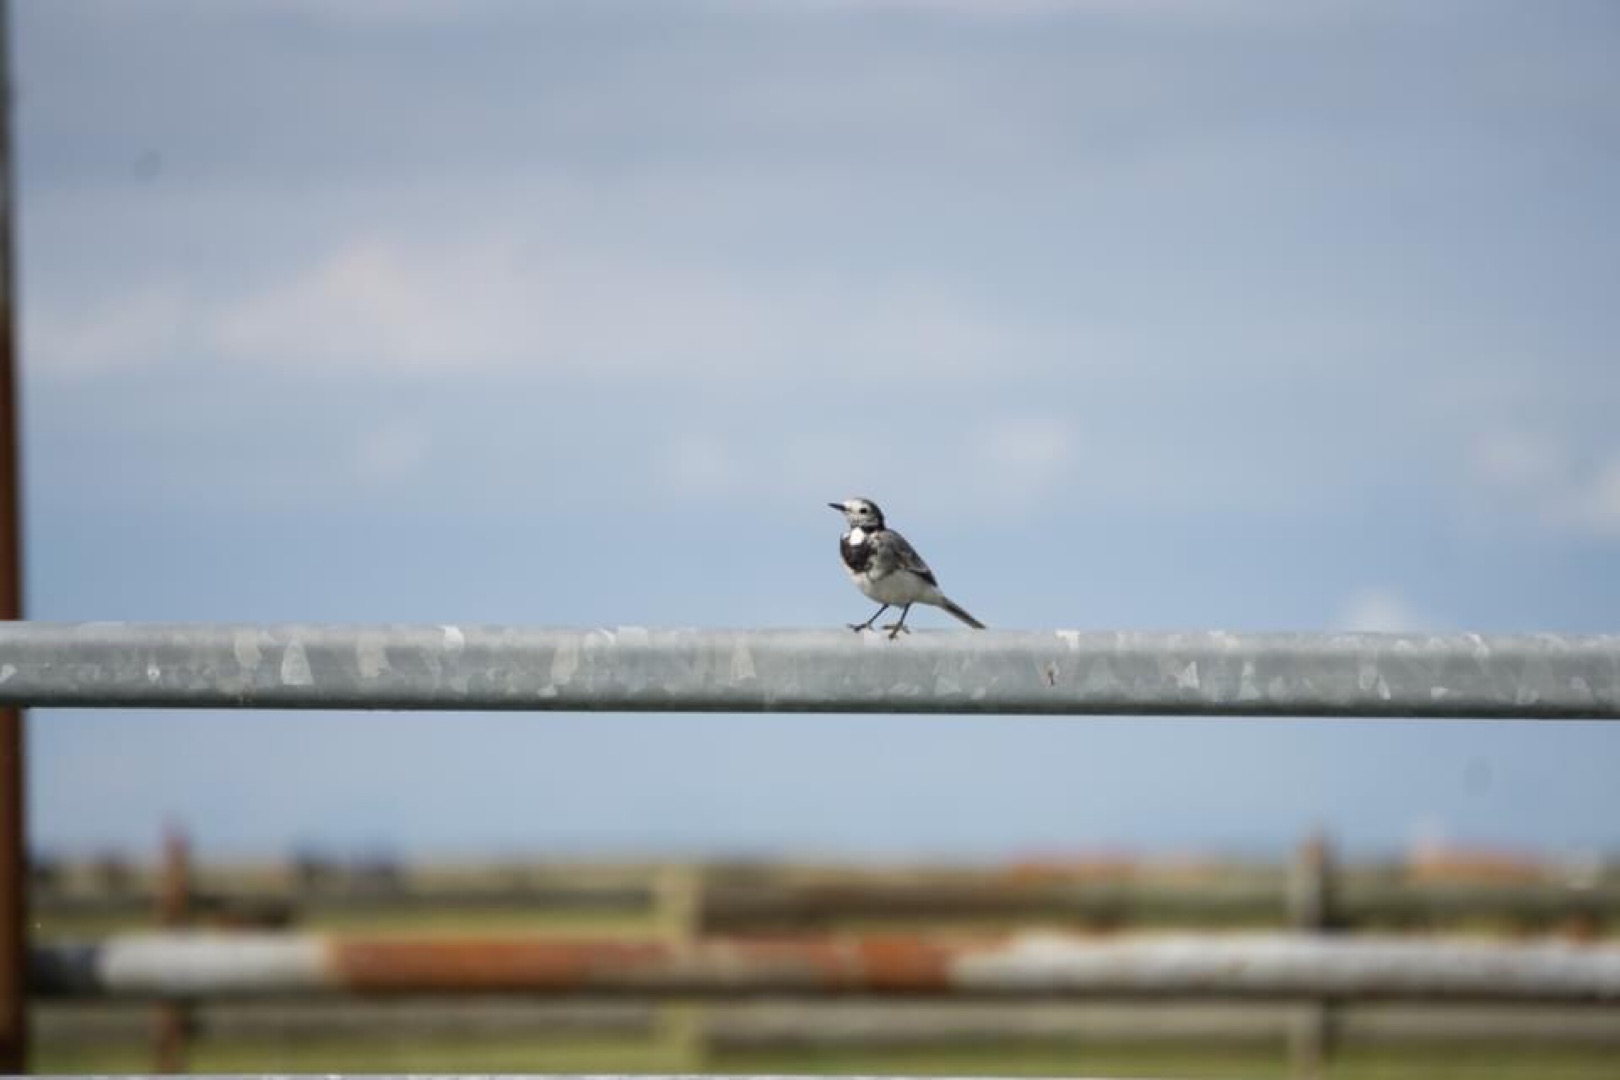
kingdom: Animalia
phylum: Chordata
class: Aves
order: Passeriformes
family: Motacillidae
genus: Motacilla
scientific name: Motacilla alba
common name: Hvid vipstjert
